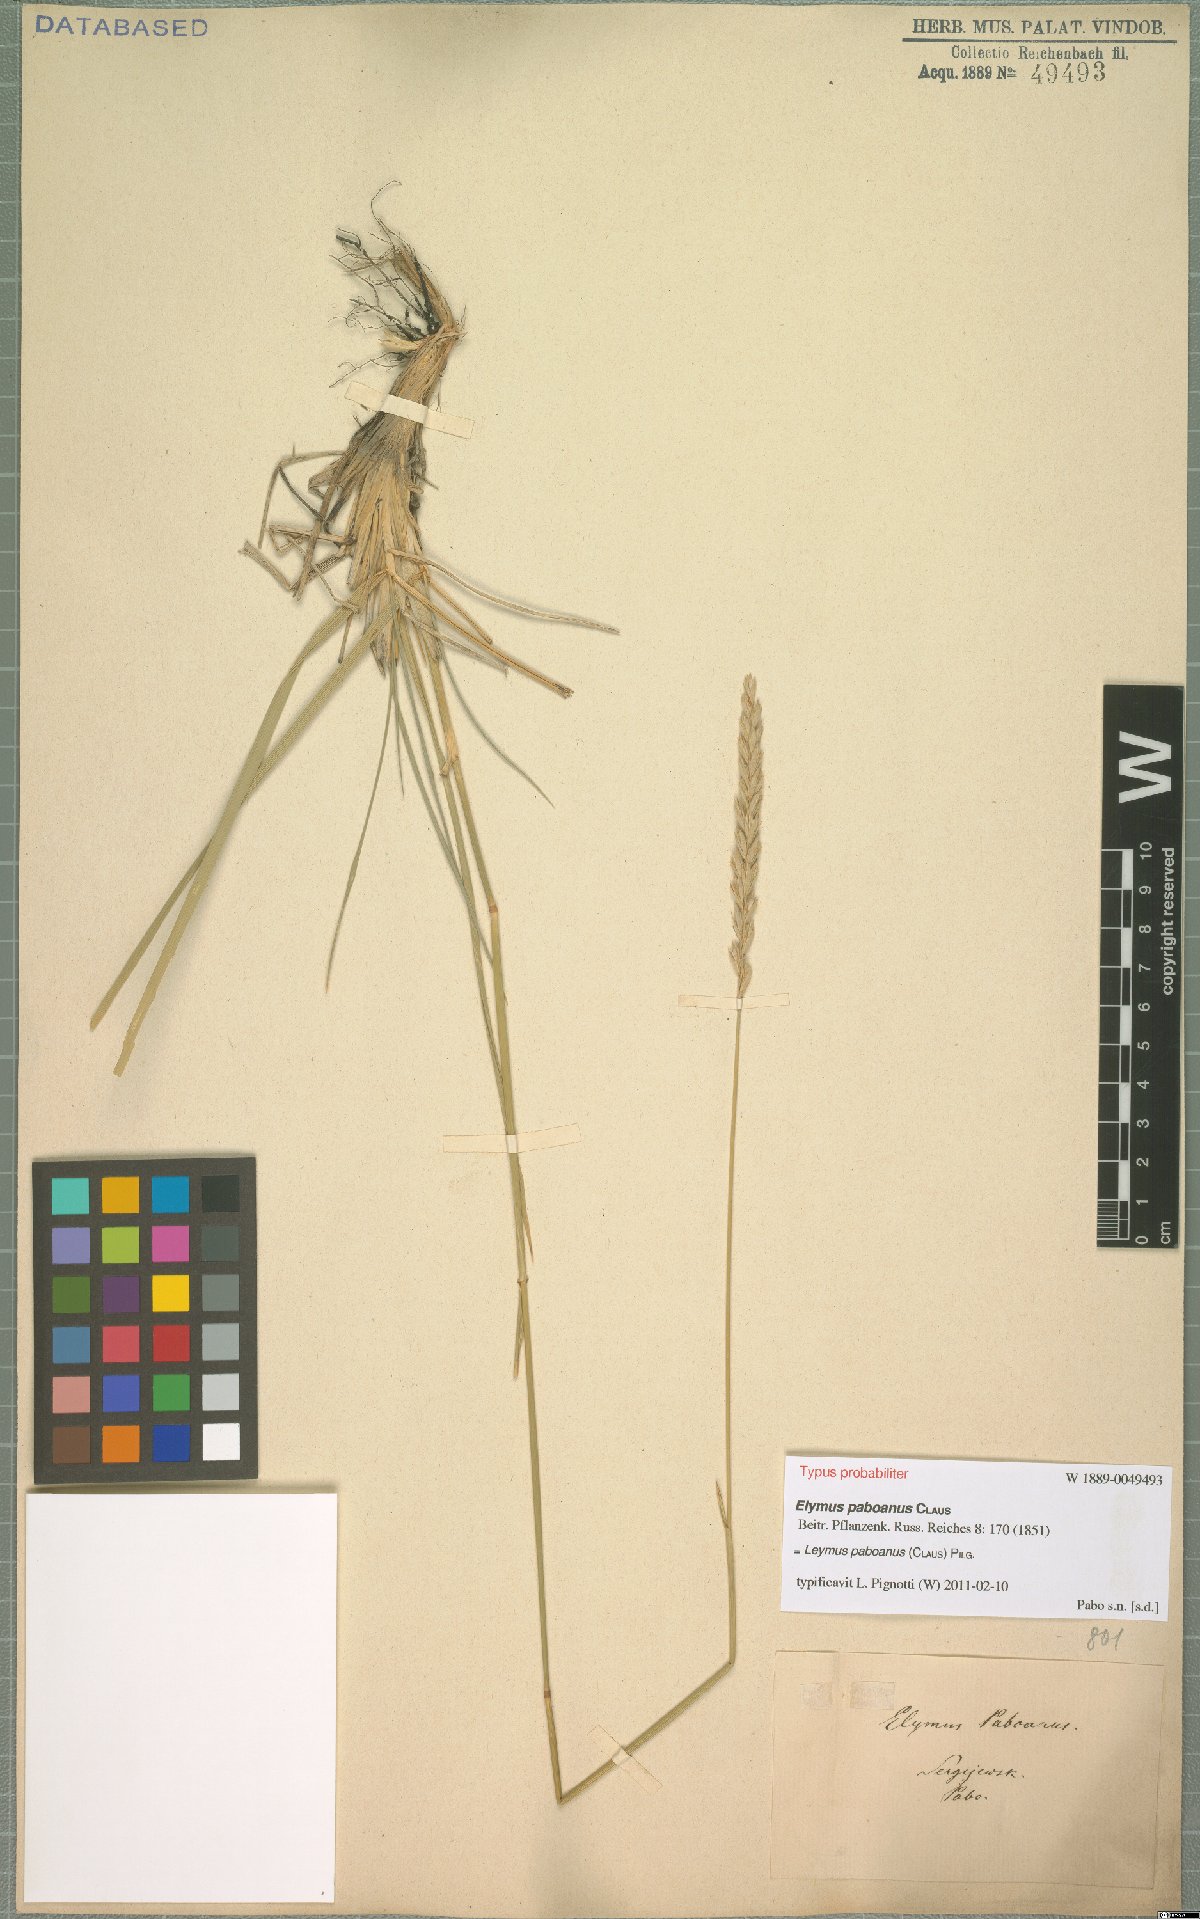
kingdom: Plantae
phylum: Tracheophyta
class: Liliopsida
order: Poales
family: Poaceae
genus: Leymus
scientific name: Leymus paboanus
